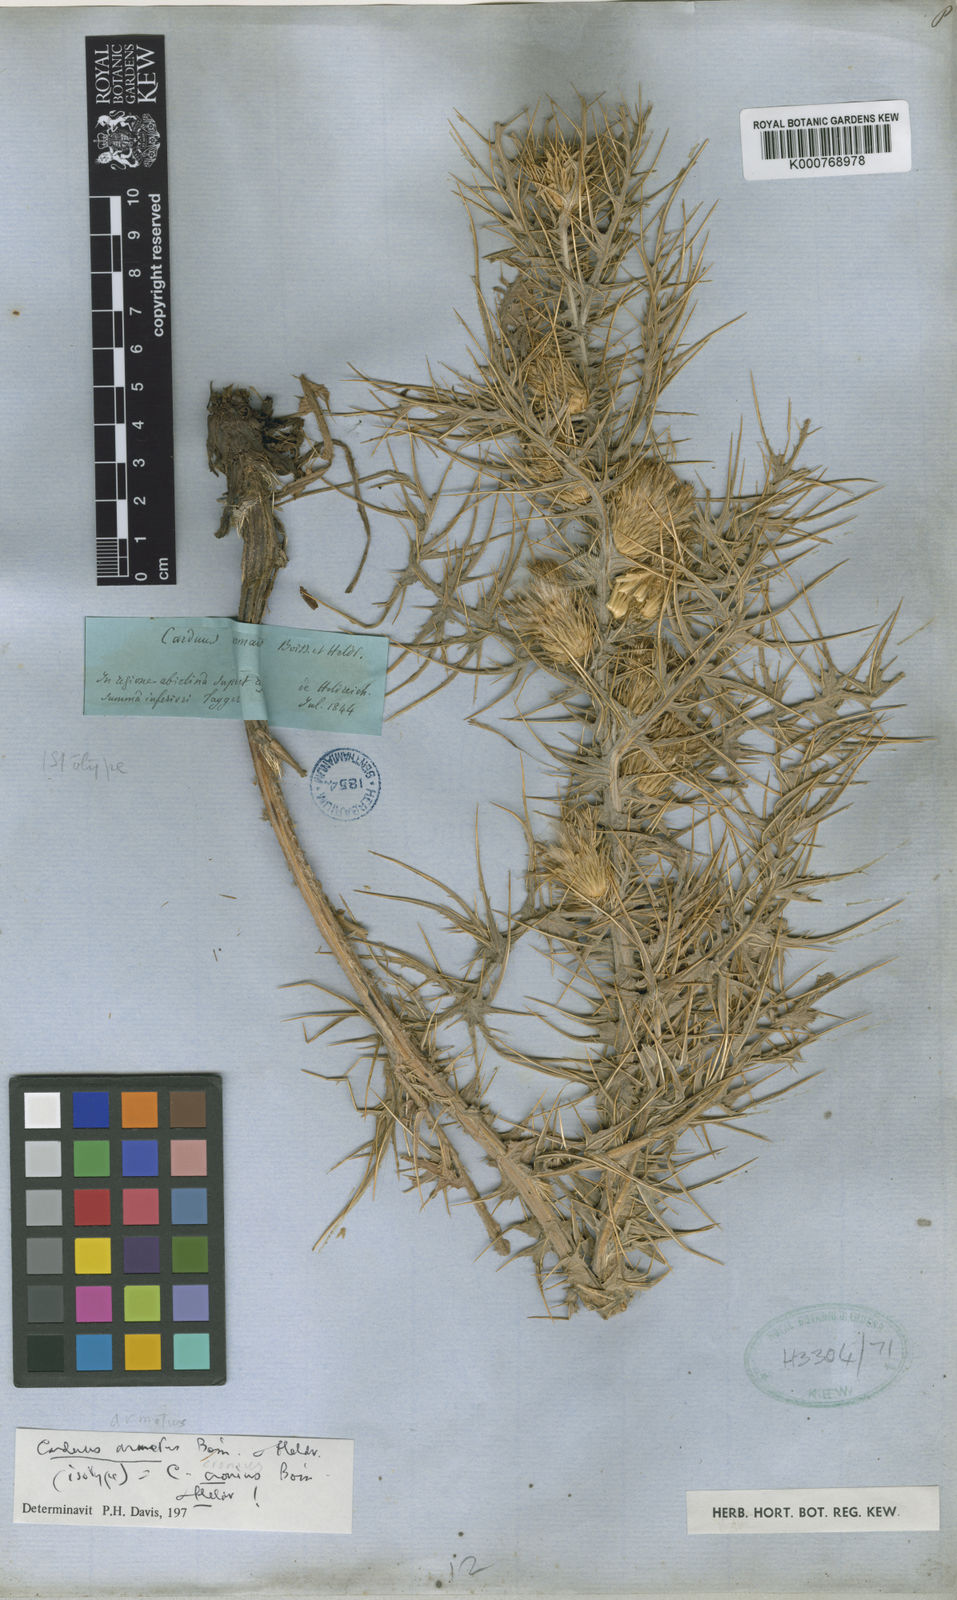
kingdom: Plantae
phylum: Tracheophyta
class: Magnoliopsida
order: Asterales
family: Asteraceae
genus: Carduus
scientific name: Carduus tmoleus
